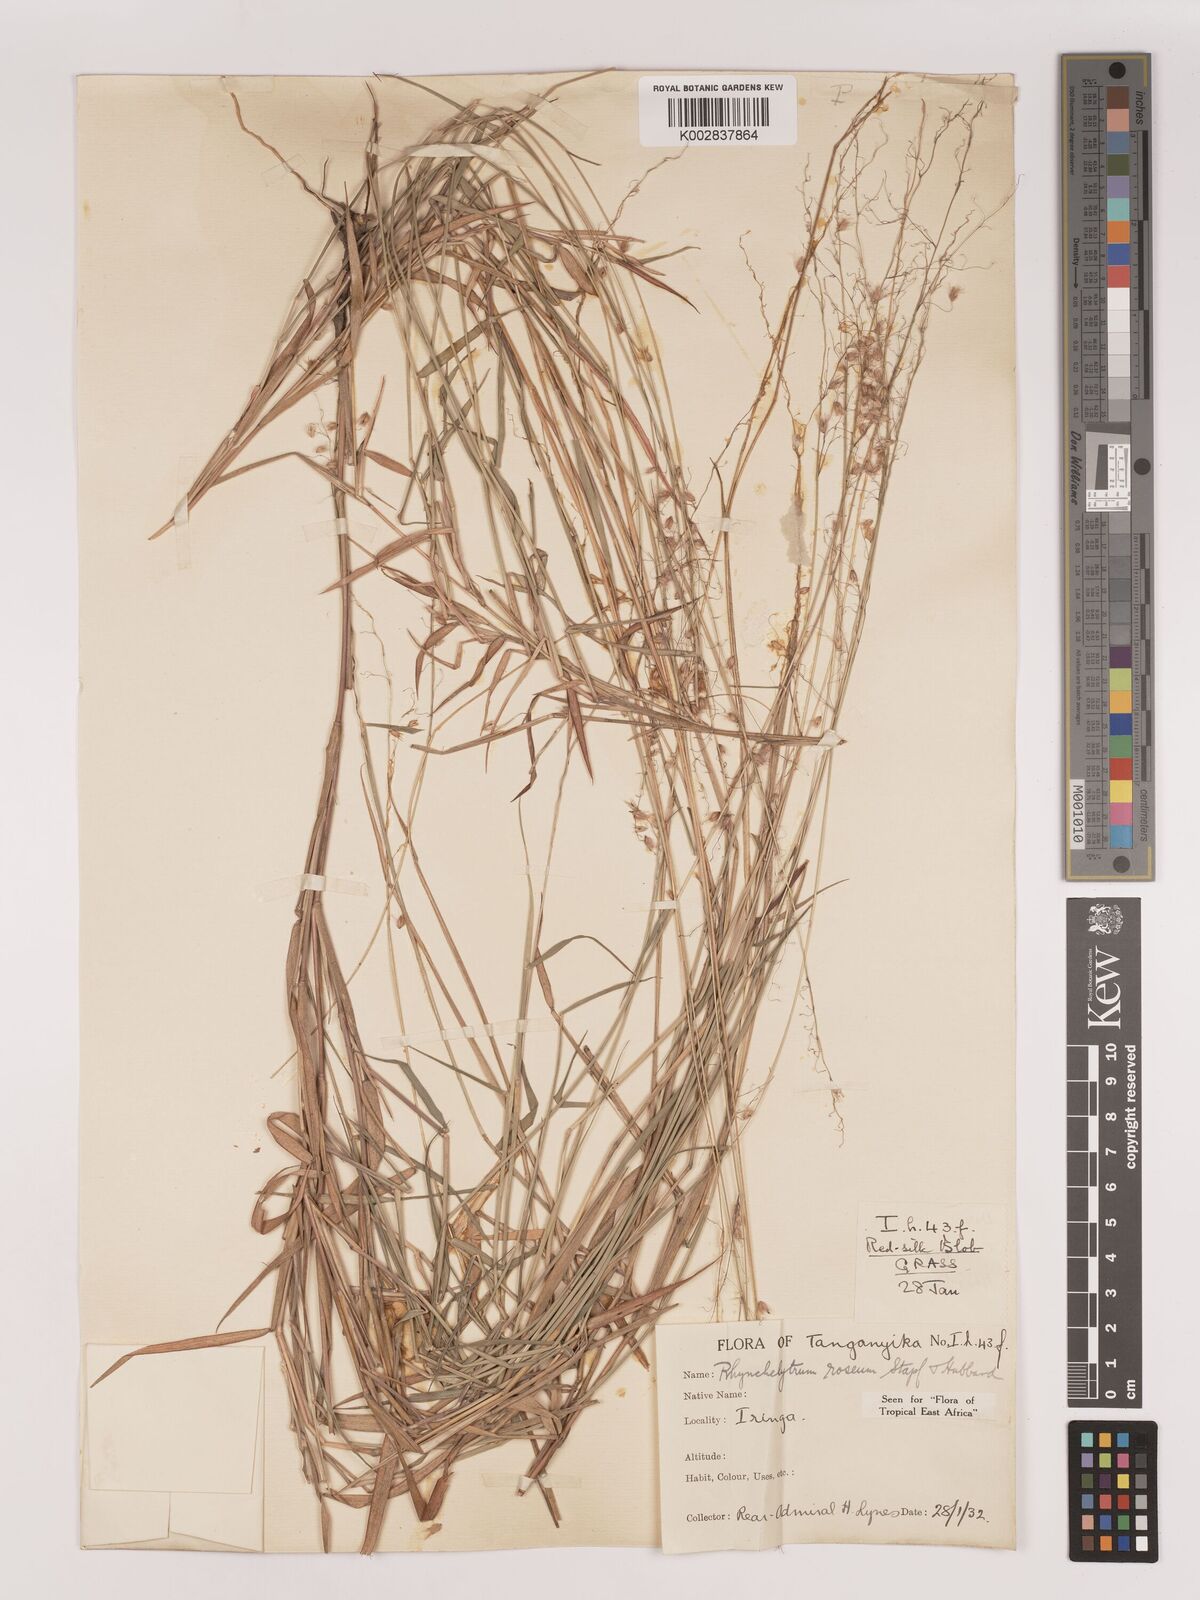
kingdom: Plantae
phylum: Tracheophyta
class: Liliopsida
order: Poales
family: Poaceae
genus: Melinis
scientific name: Melinis repens
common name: Rose natal grass
